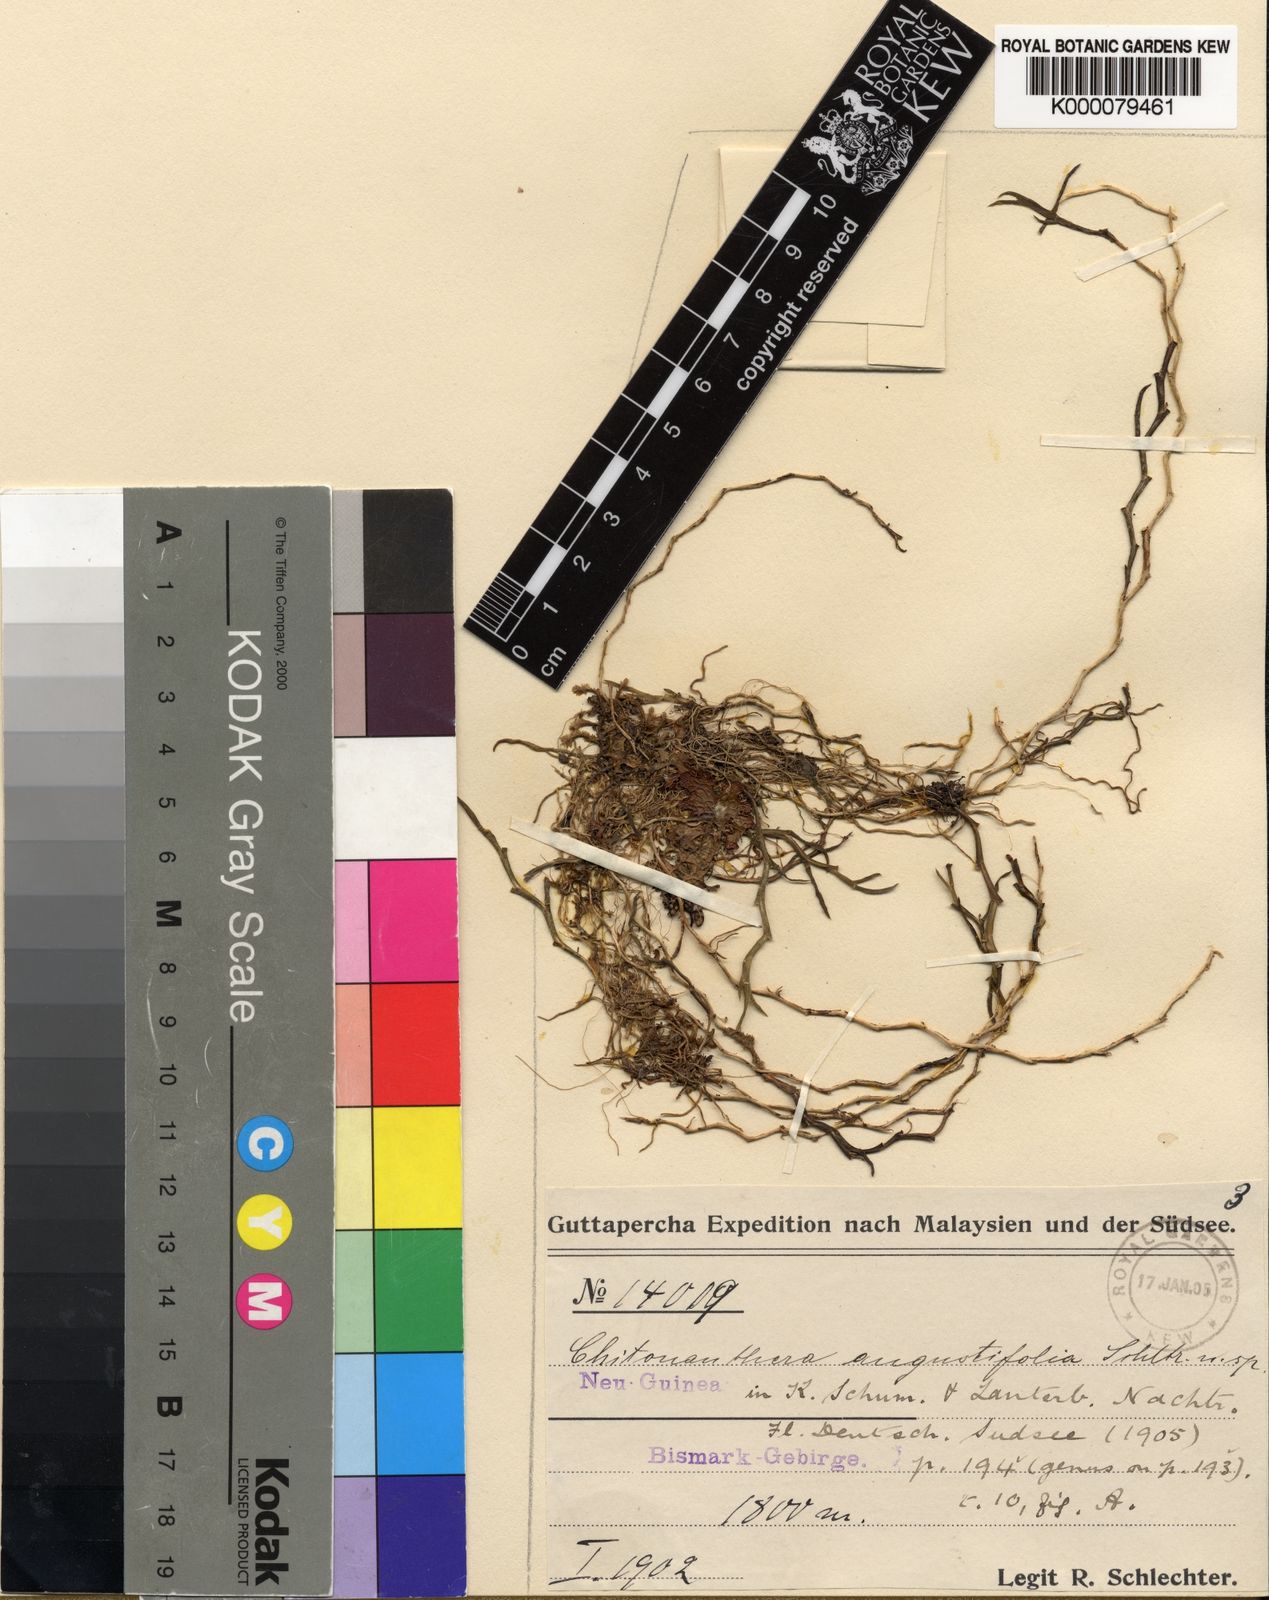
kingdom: Plantae
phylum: Tracheophyta
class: Liliopsida
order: Asparagales
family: Orchidaceae
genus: Octarrhena
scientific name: Octarrhena angustifolia
